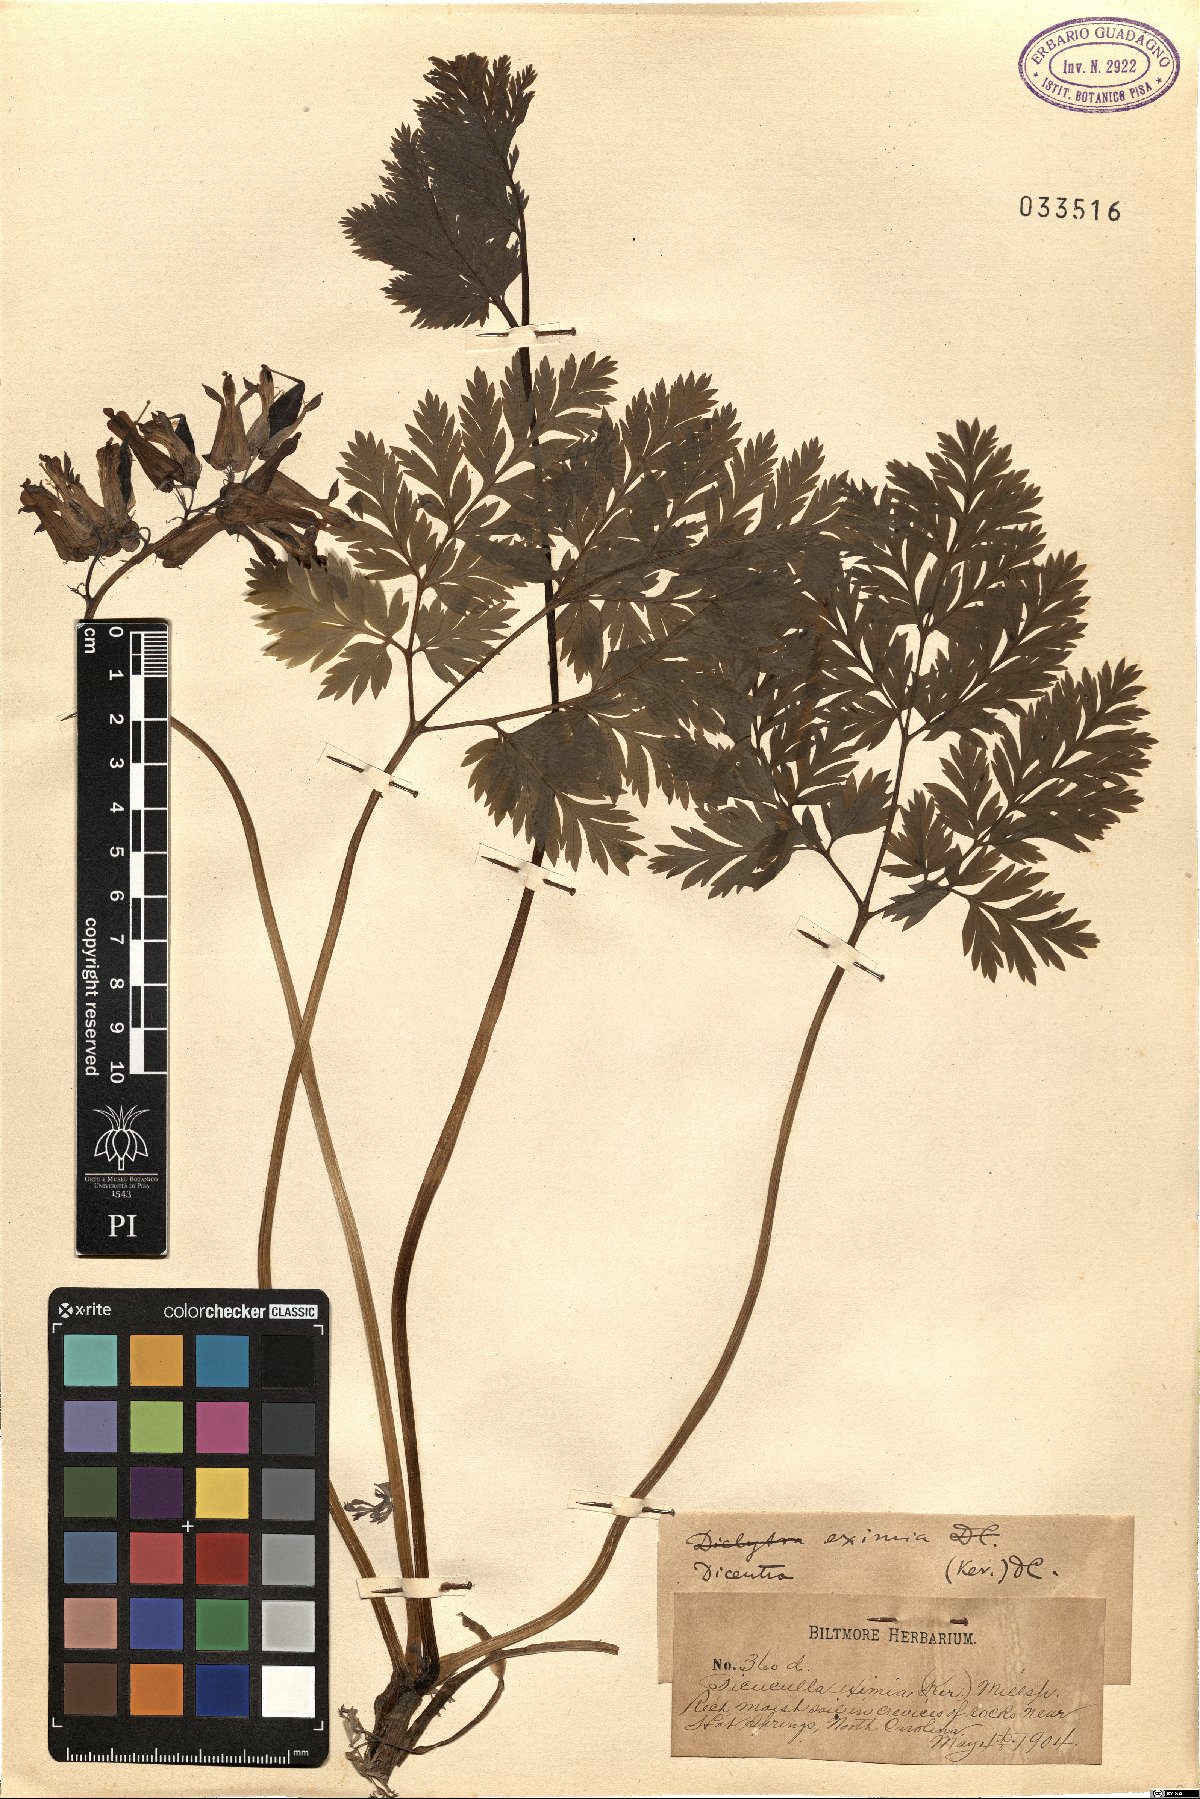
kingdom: Plantae
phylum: Tracheophyta
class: Magnoliopsida
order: Ranunculales
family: Papaveraceae
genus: Dicentra
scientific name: Dicentra eximia
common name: Turkey-corn
